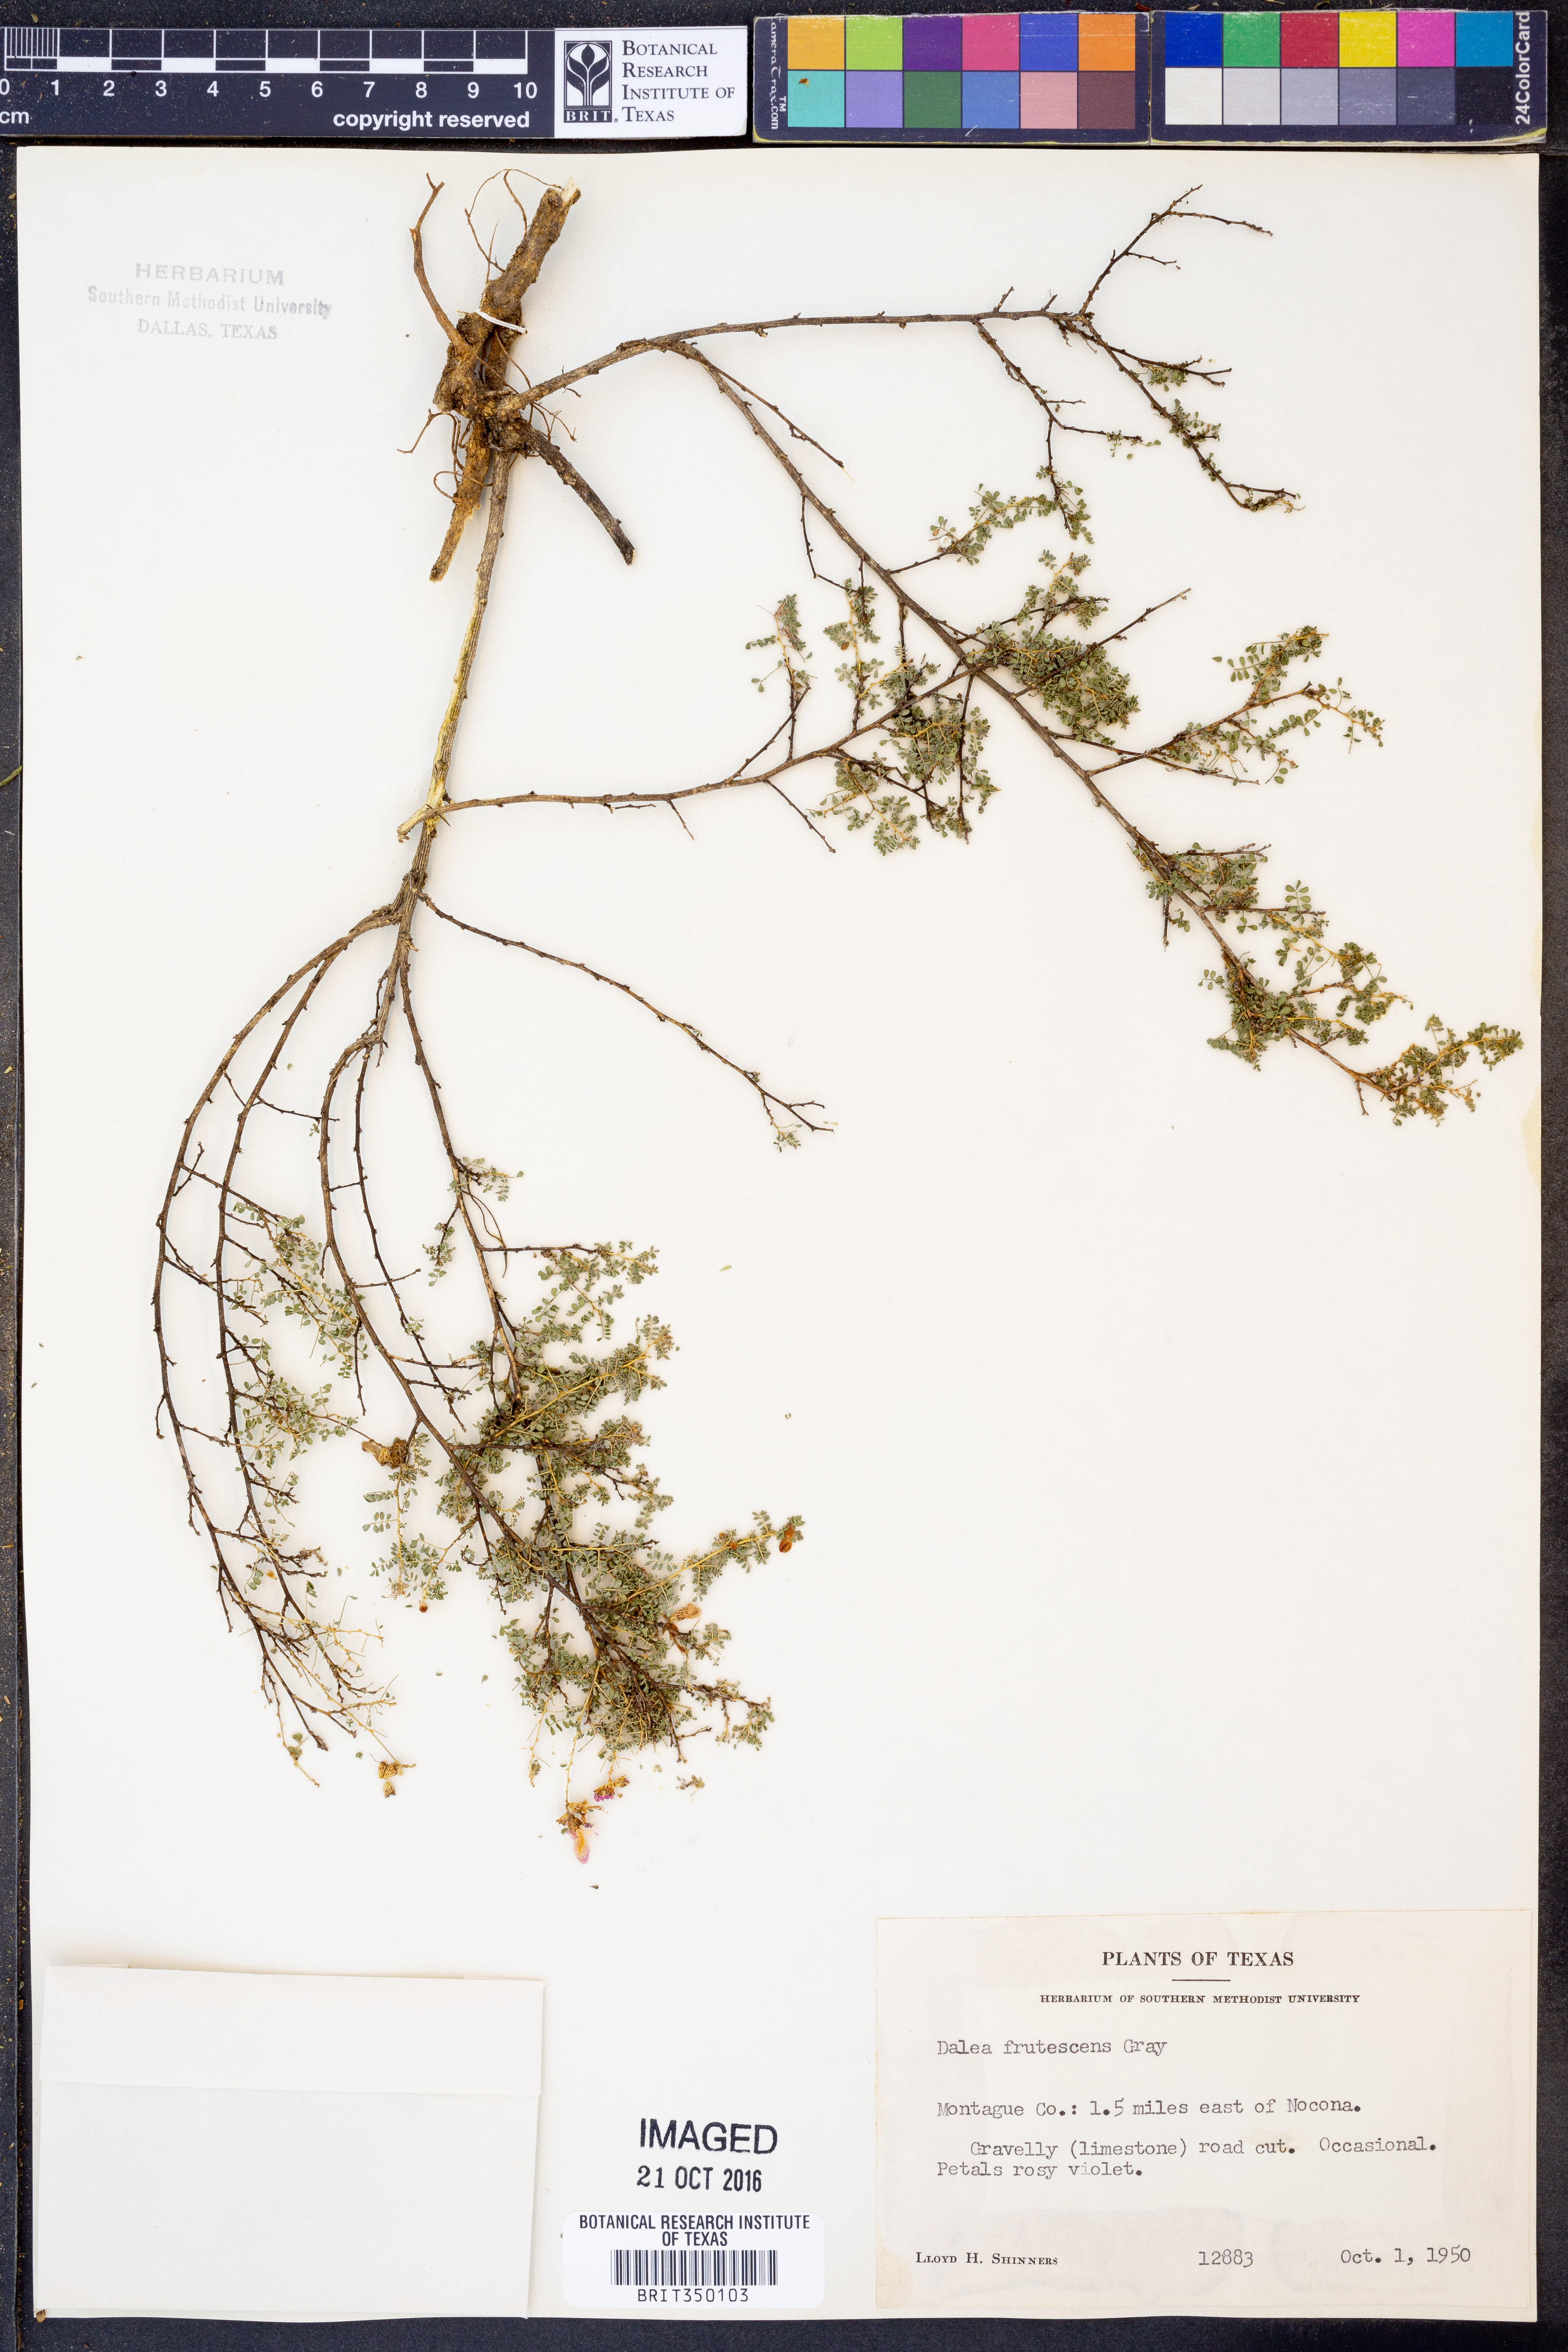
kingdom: Plantae
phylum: Tracheophyta
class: Magnoliopsida
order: Fabales
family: Fabaceae
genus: Dalea
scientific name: Dalea frutescens
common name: Black dalea
